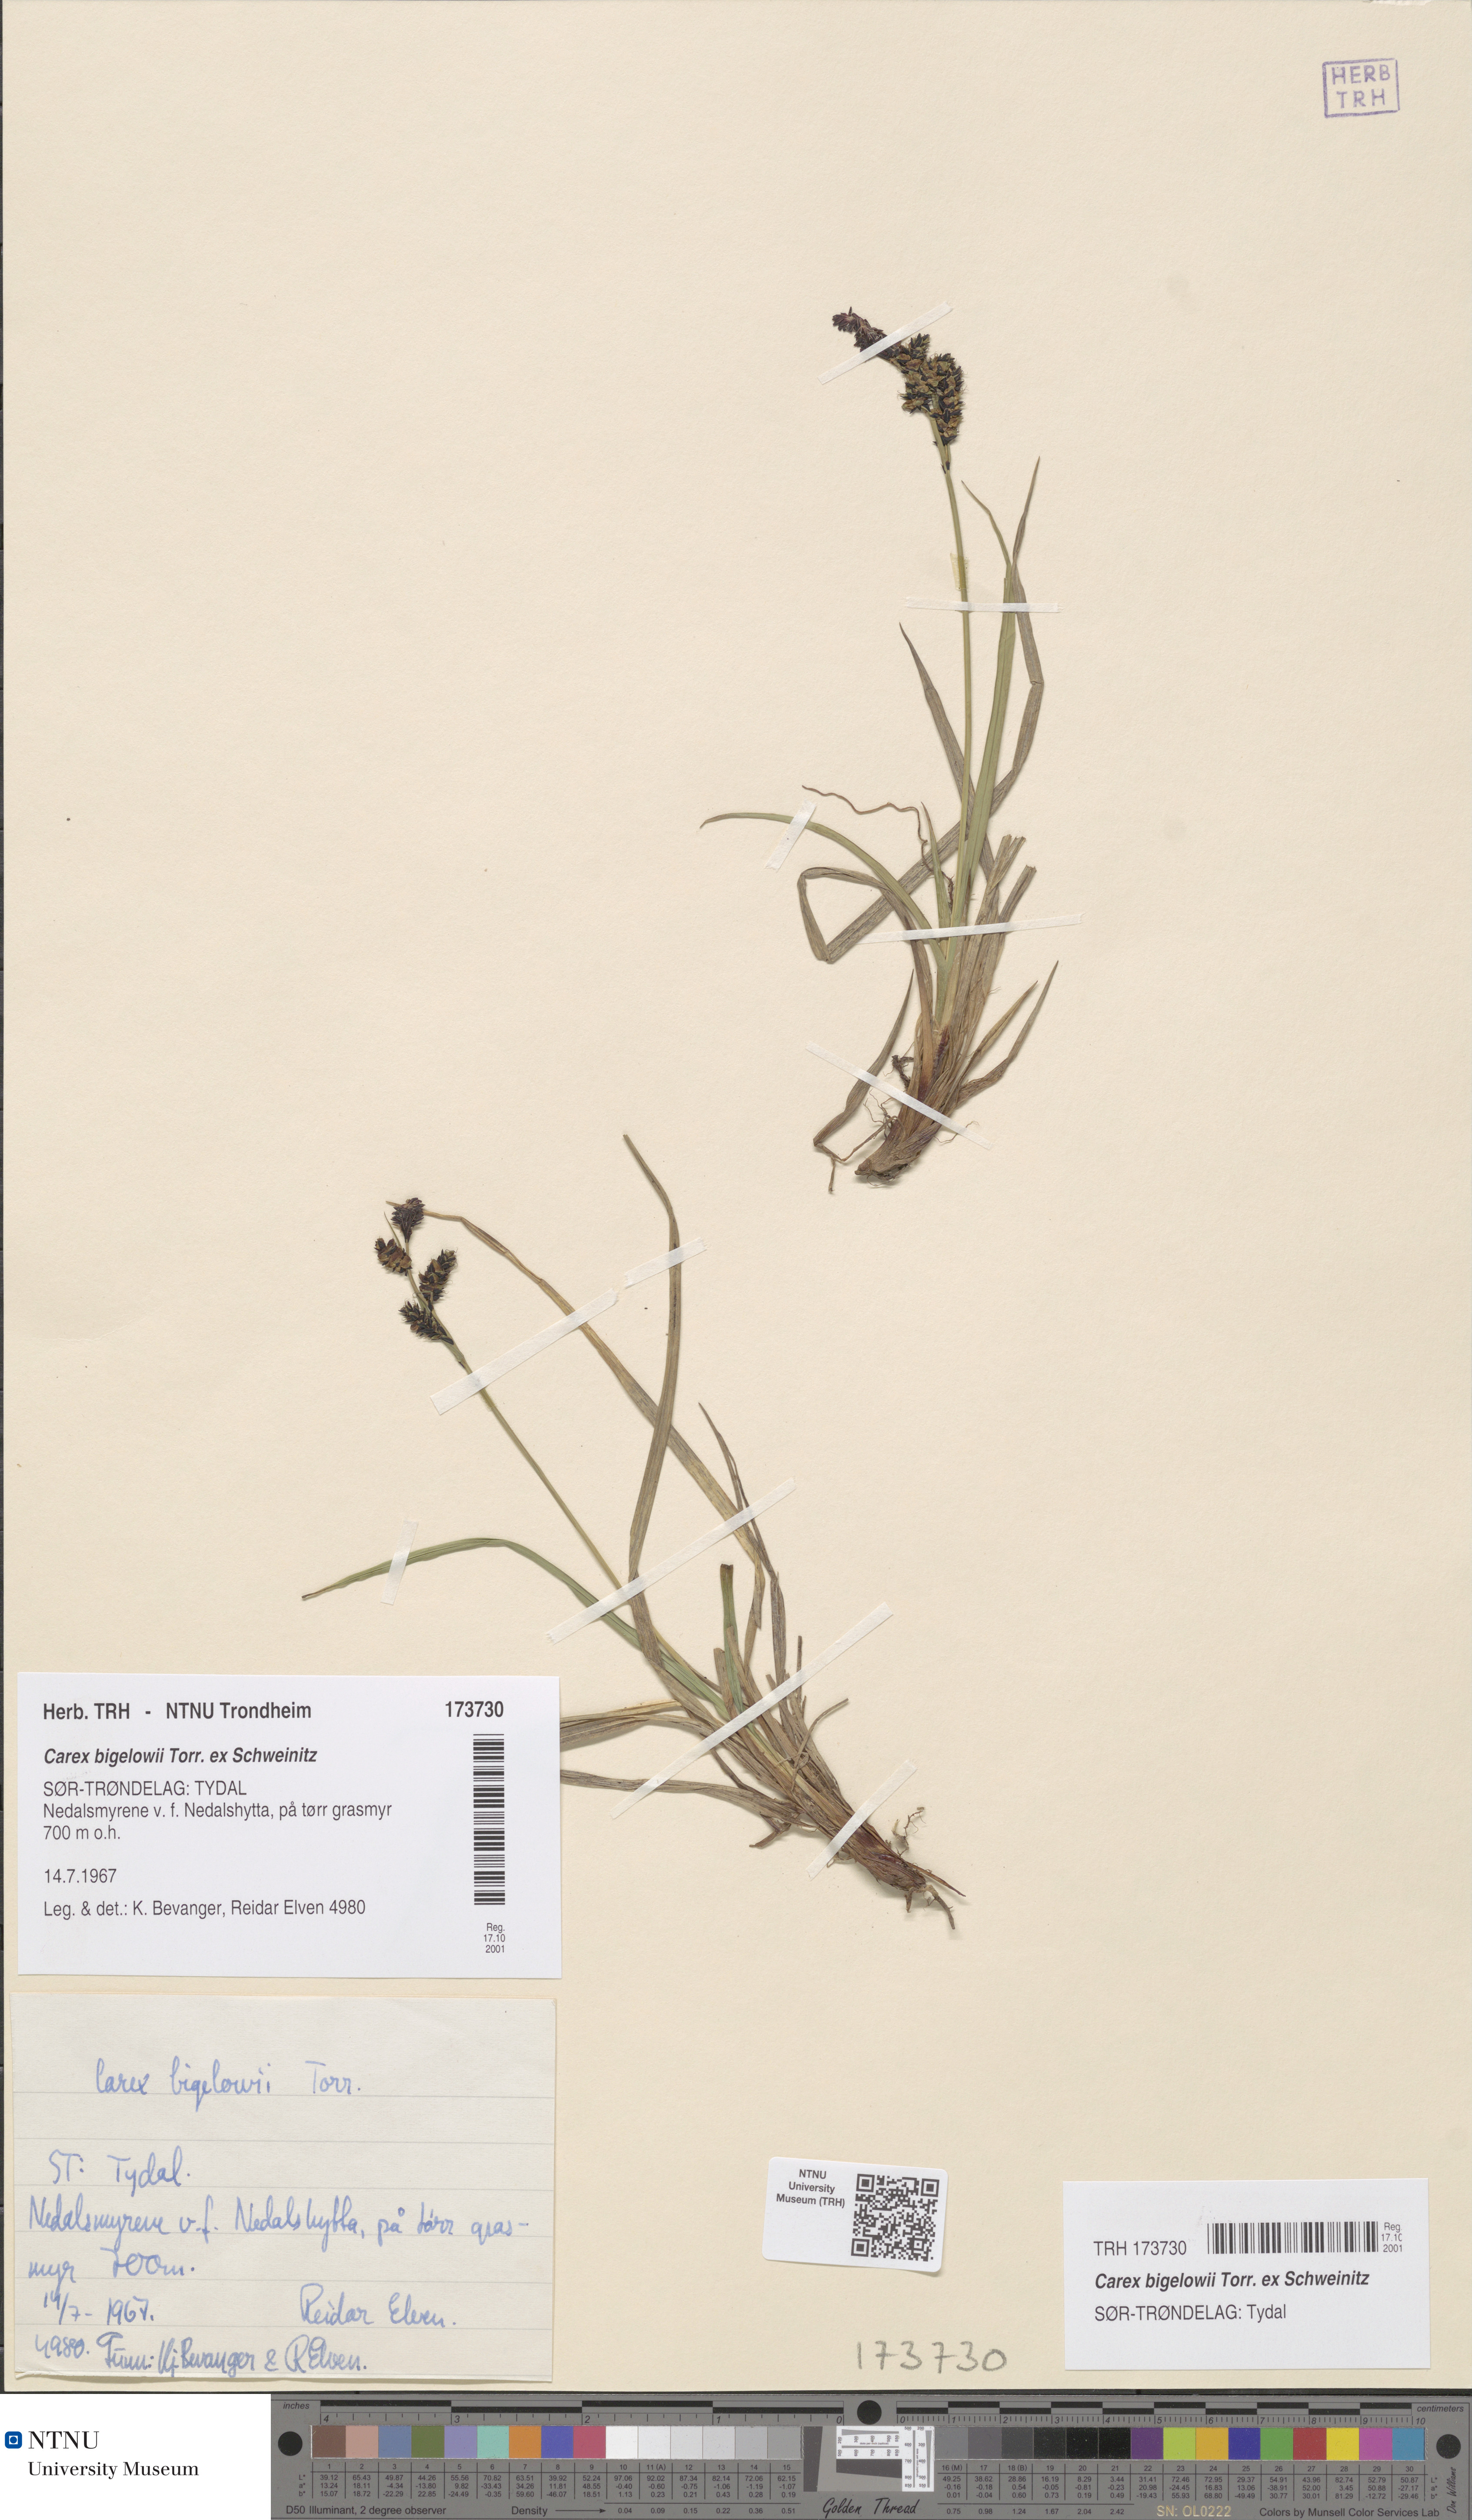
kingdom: Plantae
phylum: Tracheophyta
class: Liliopsida
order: Poales
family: Cyperaceae
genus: Carex
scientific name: Carex bigelowii
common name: Stiff sedge
